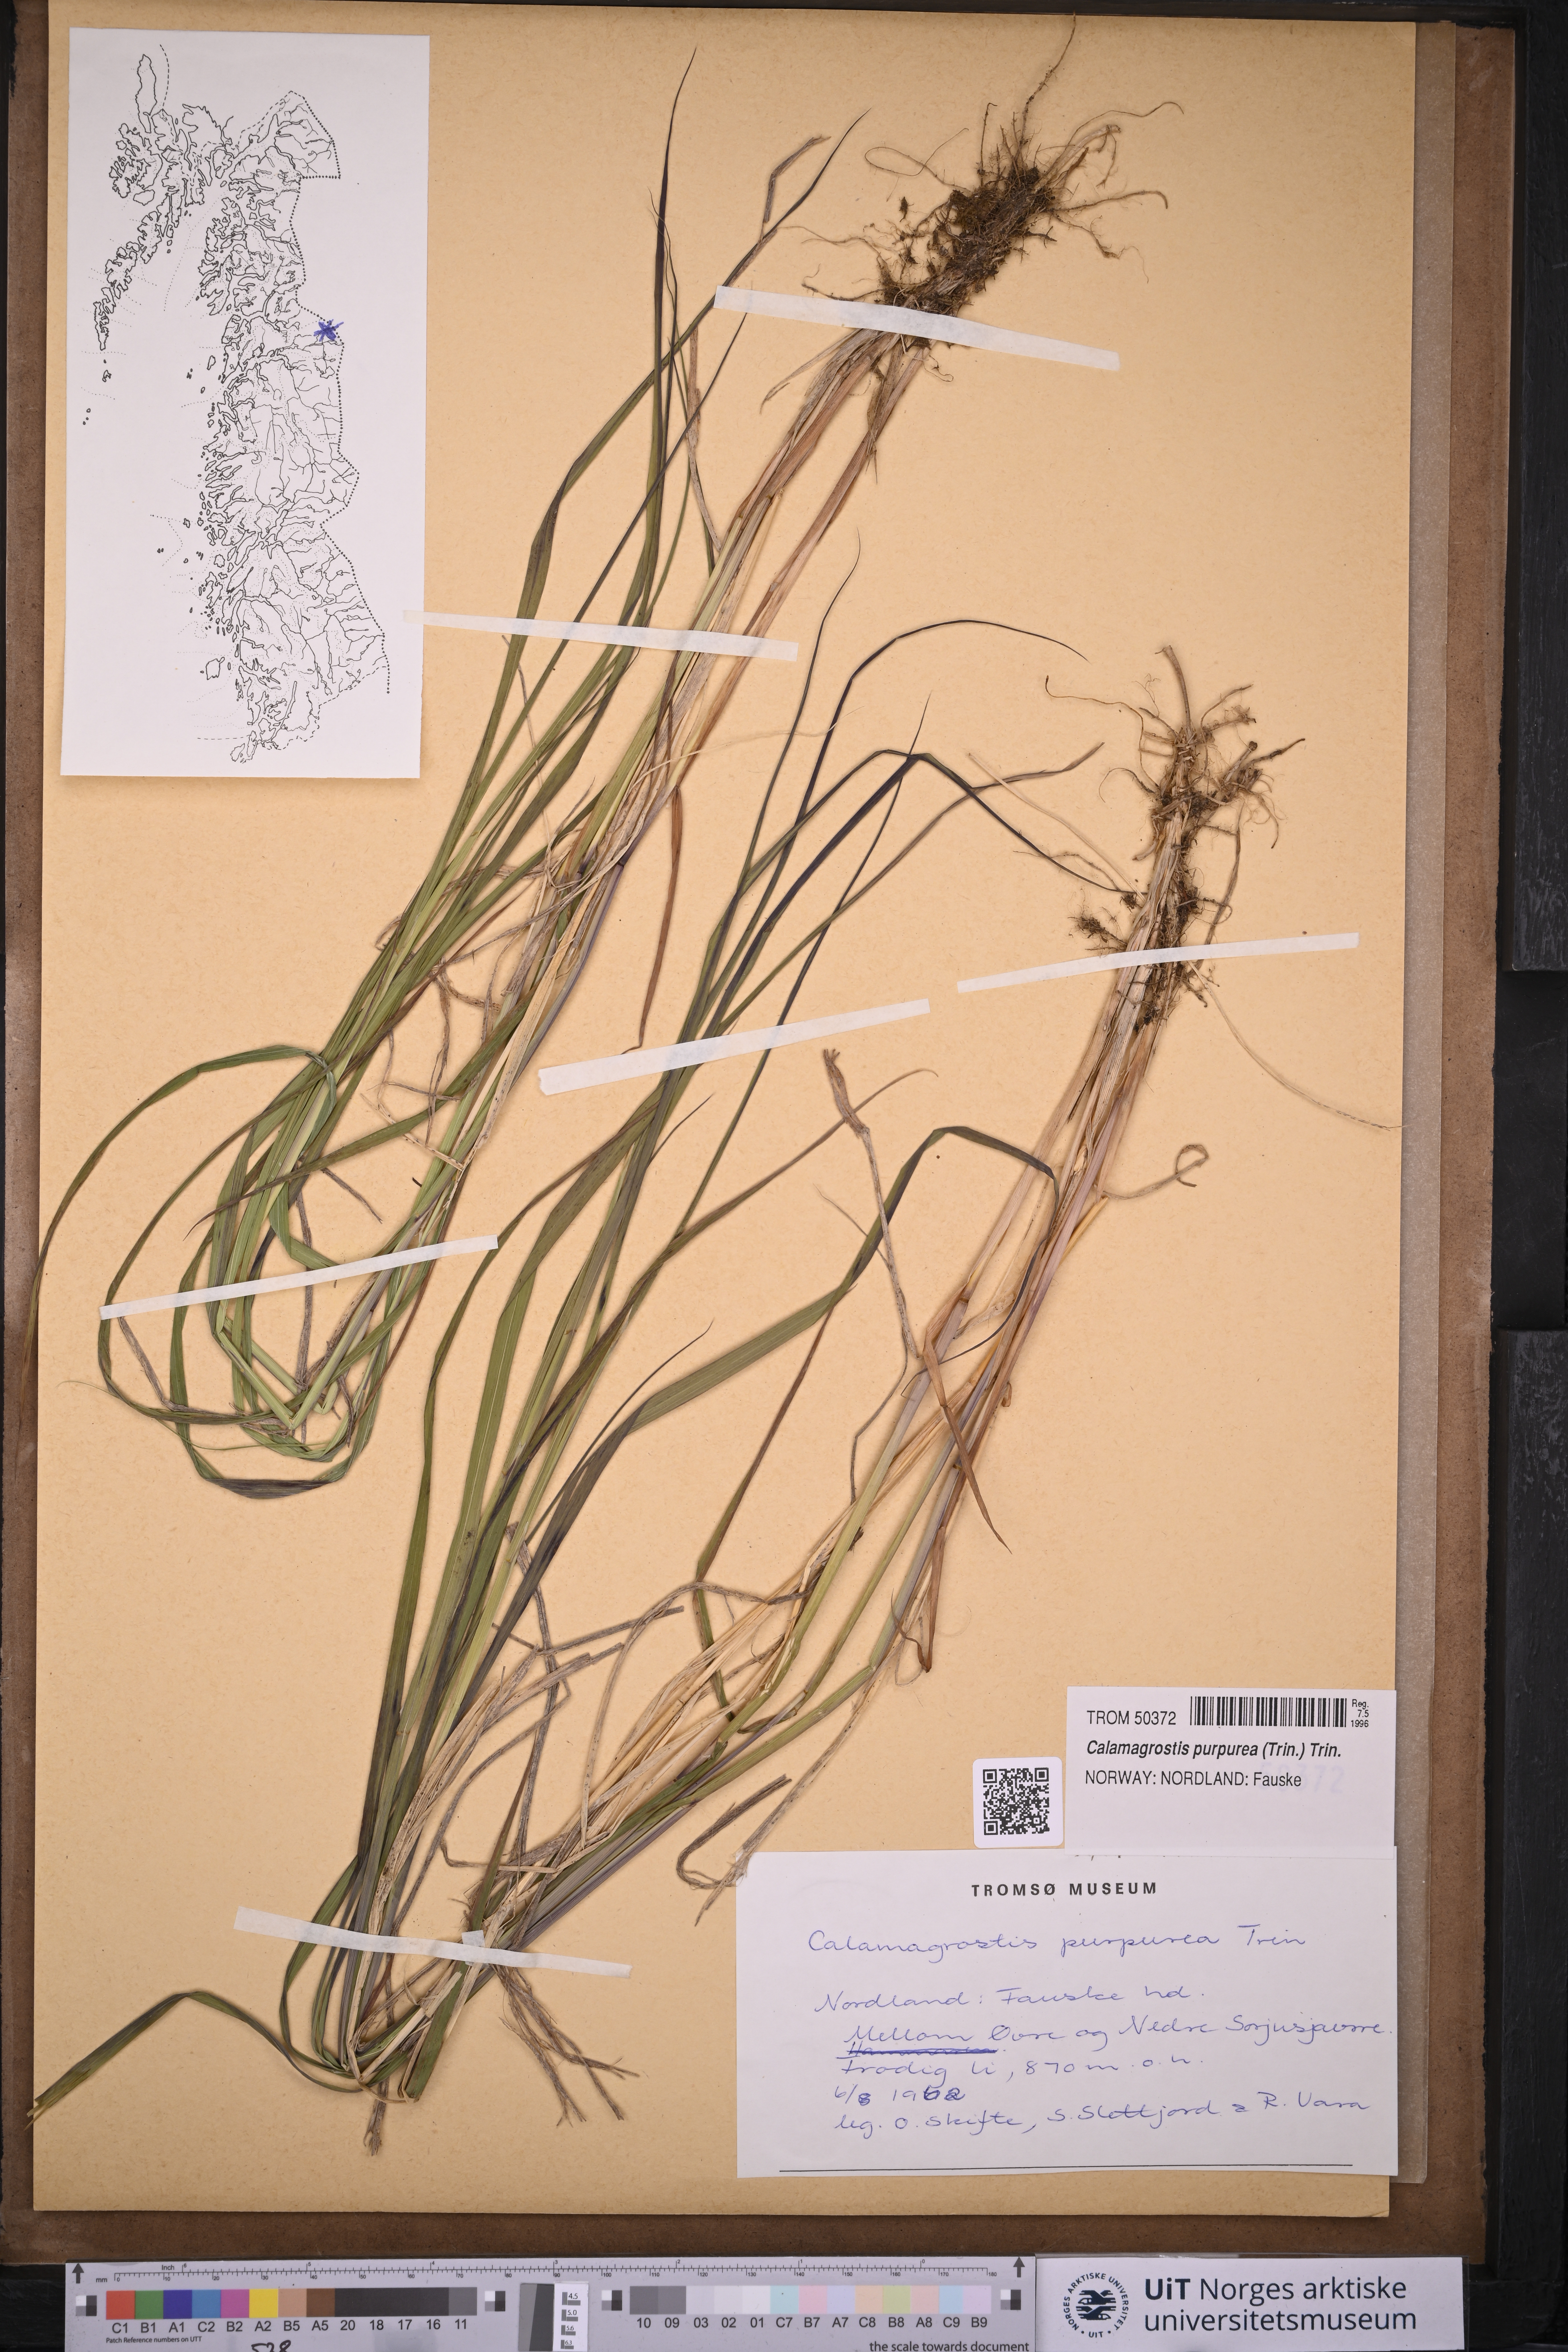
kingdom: Plantae
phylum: Tracheophyta
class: Liliopsida
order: Poales
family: Poaceae
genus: Calamagrostis
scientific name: Calamagrostis purpurea
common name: Scandinavian small-reed
